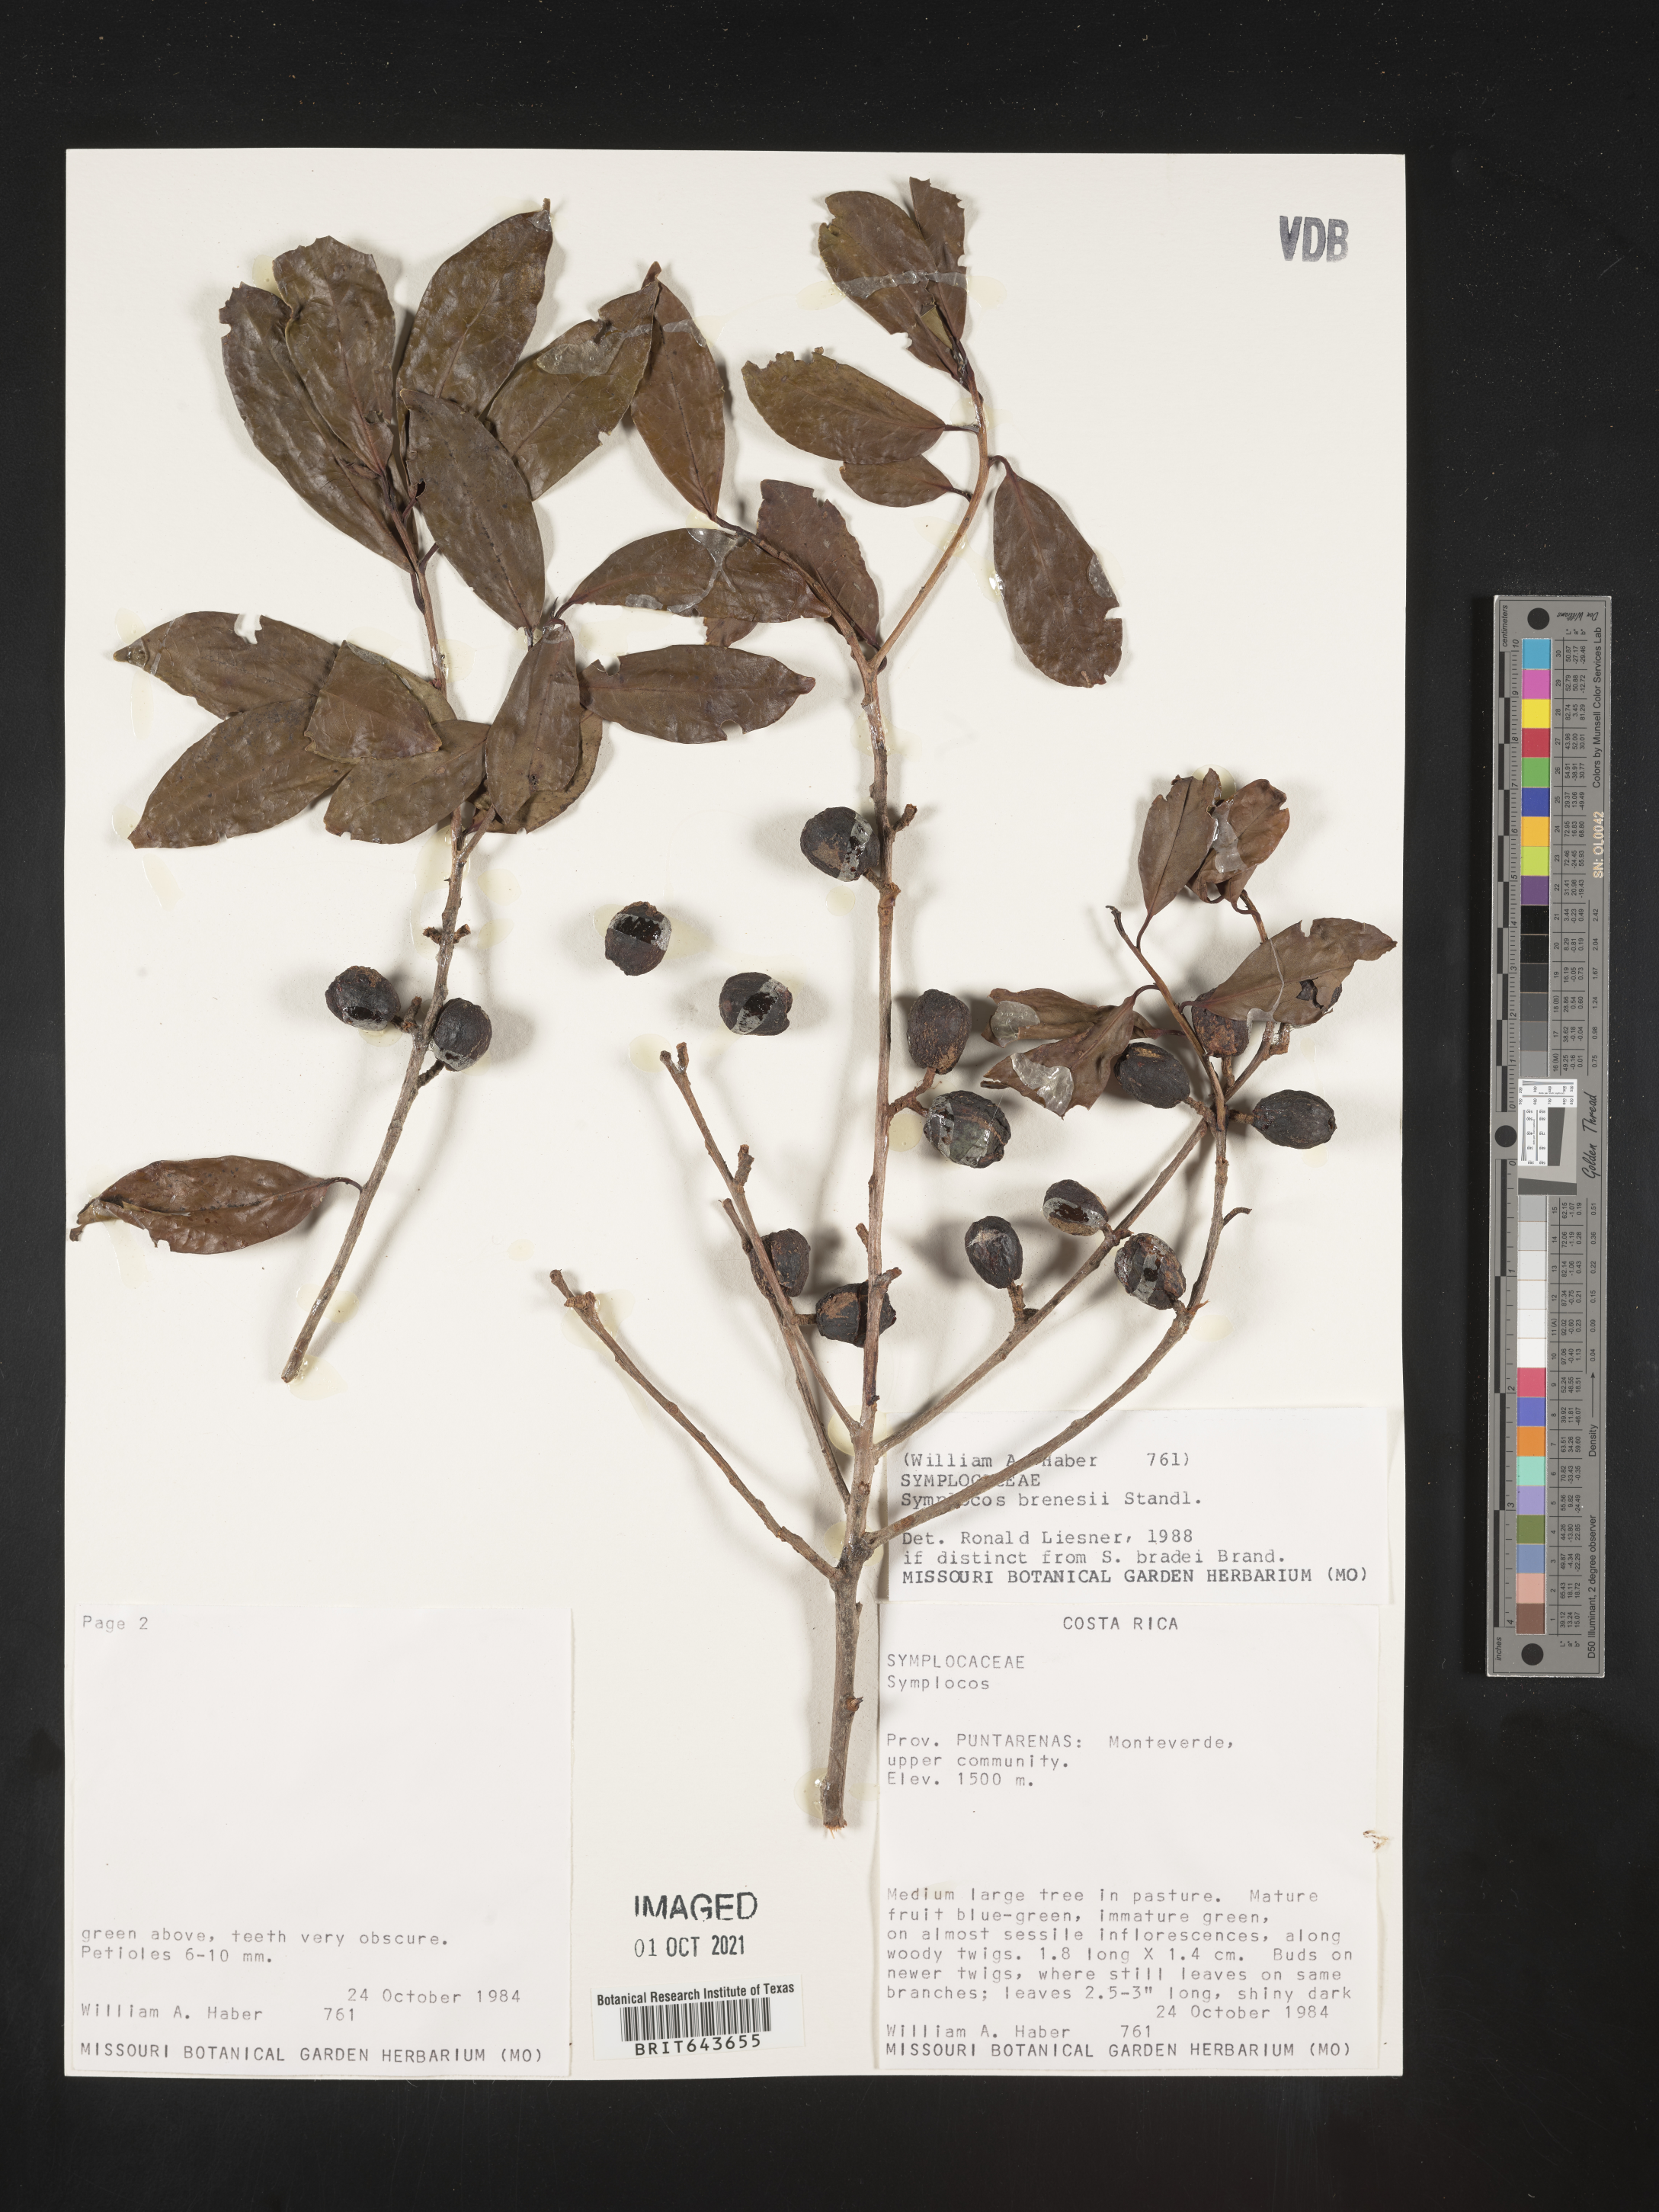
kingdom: Plantae
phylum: Tracheophyta
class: Magnoliopsida
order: Ericales
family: Symplocaceae
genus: Symplocos
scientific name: Symplocos
